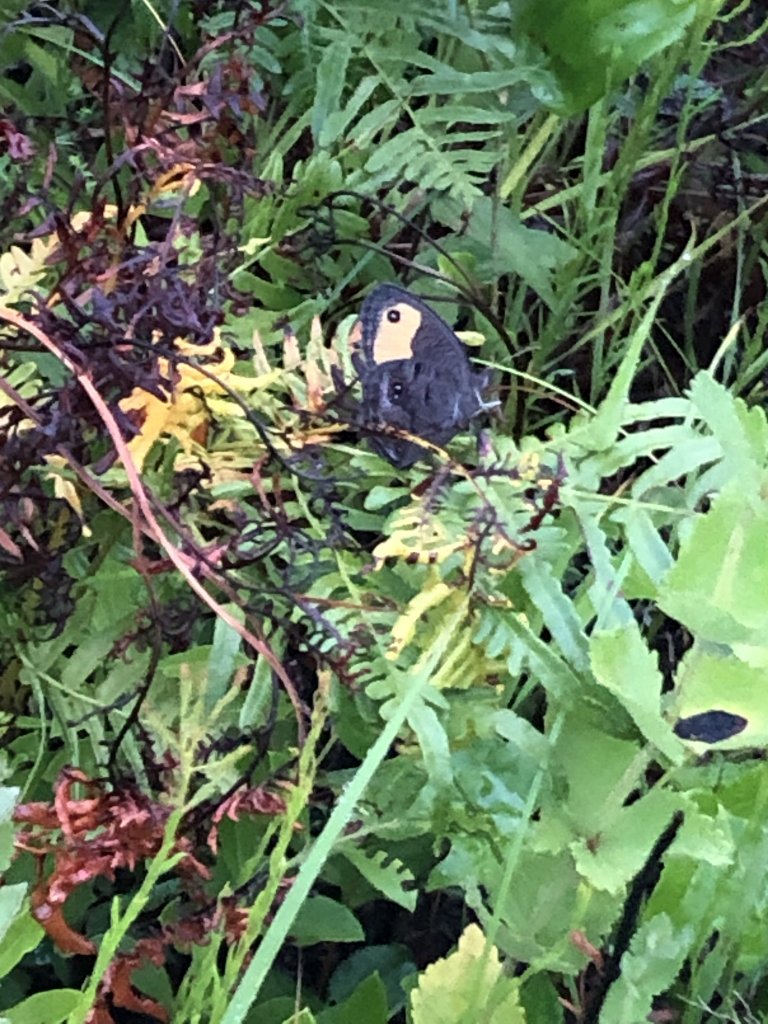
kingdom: Animalia
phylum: Arthropoda
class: Insecta
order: Lepidoptera
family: Nymphalidae
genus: Cercyonis
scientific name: Cercyonis pegala
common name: Common Wood-Nymph
